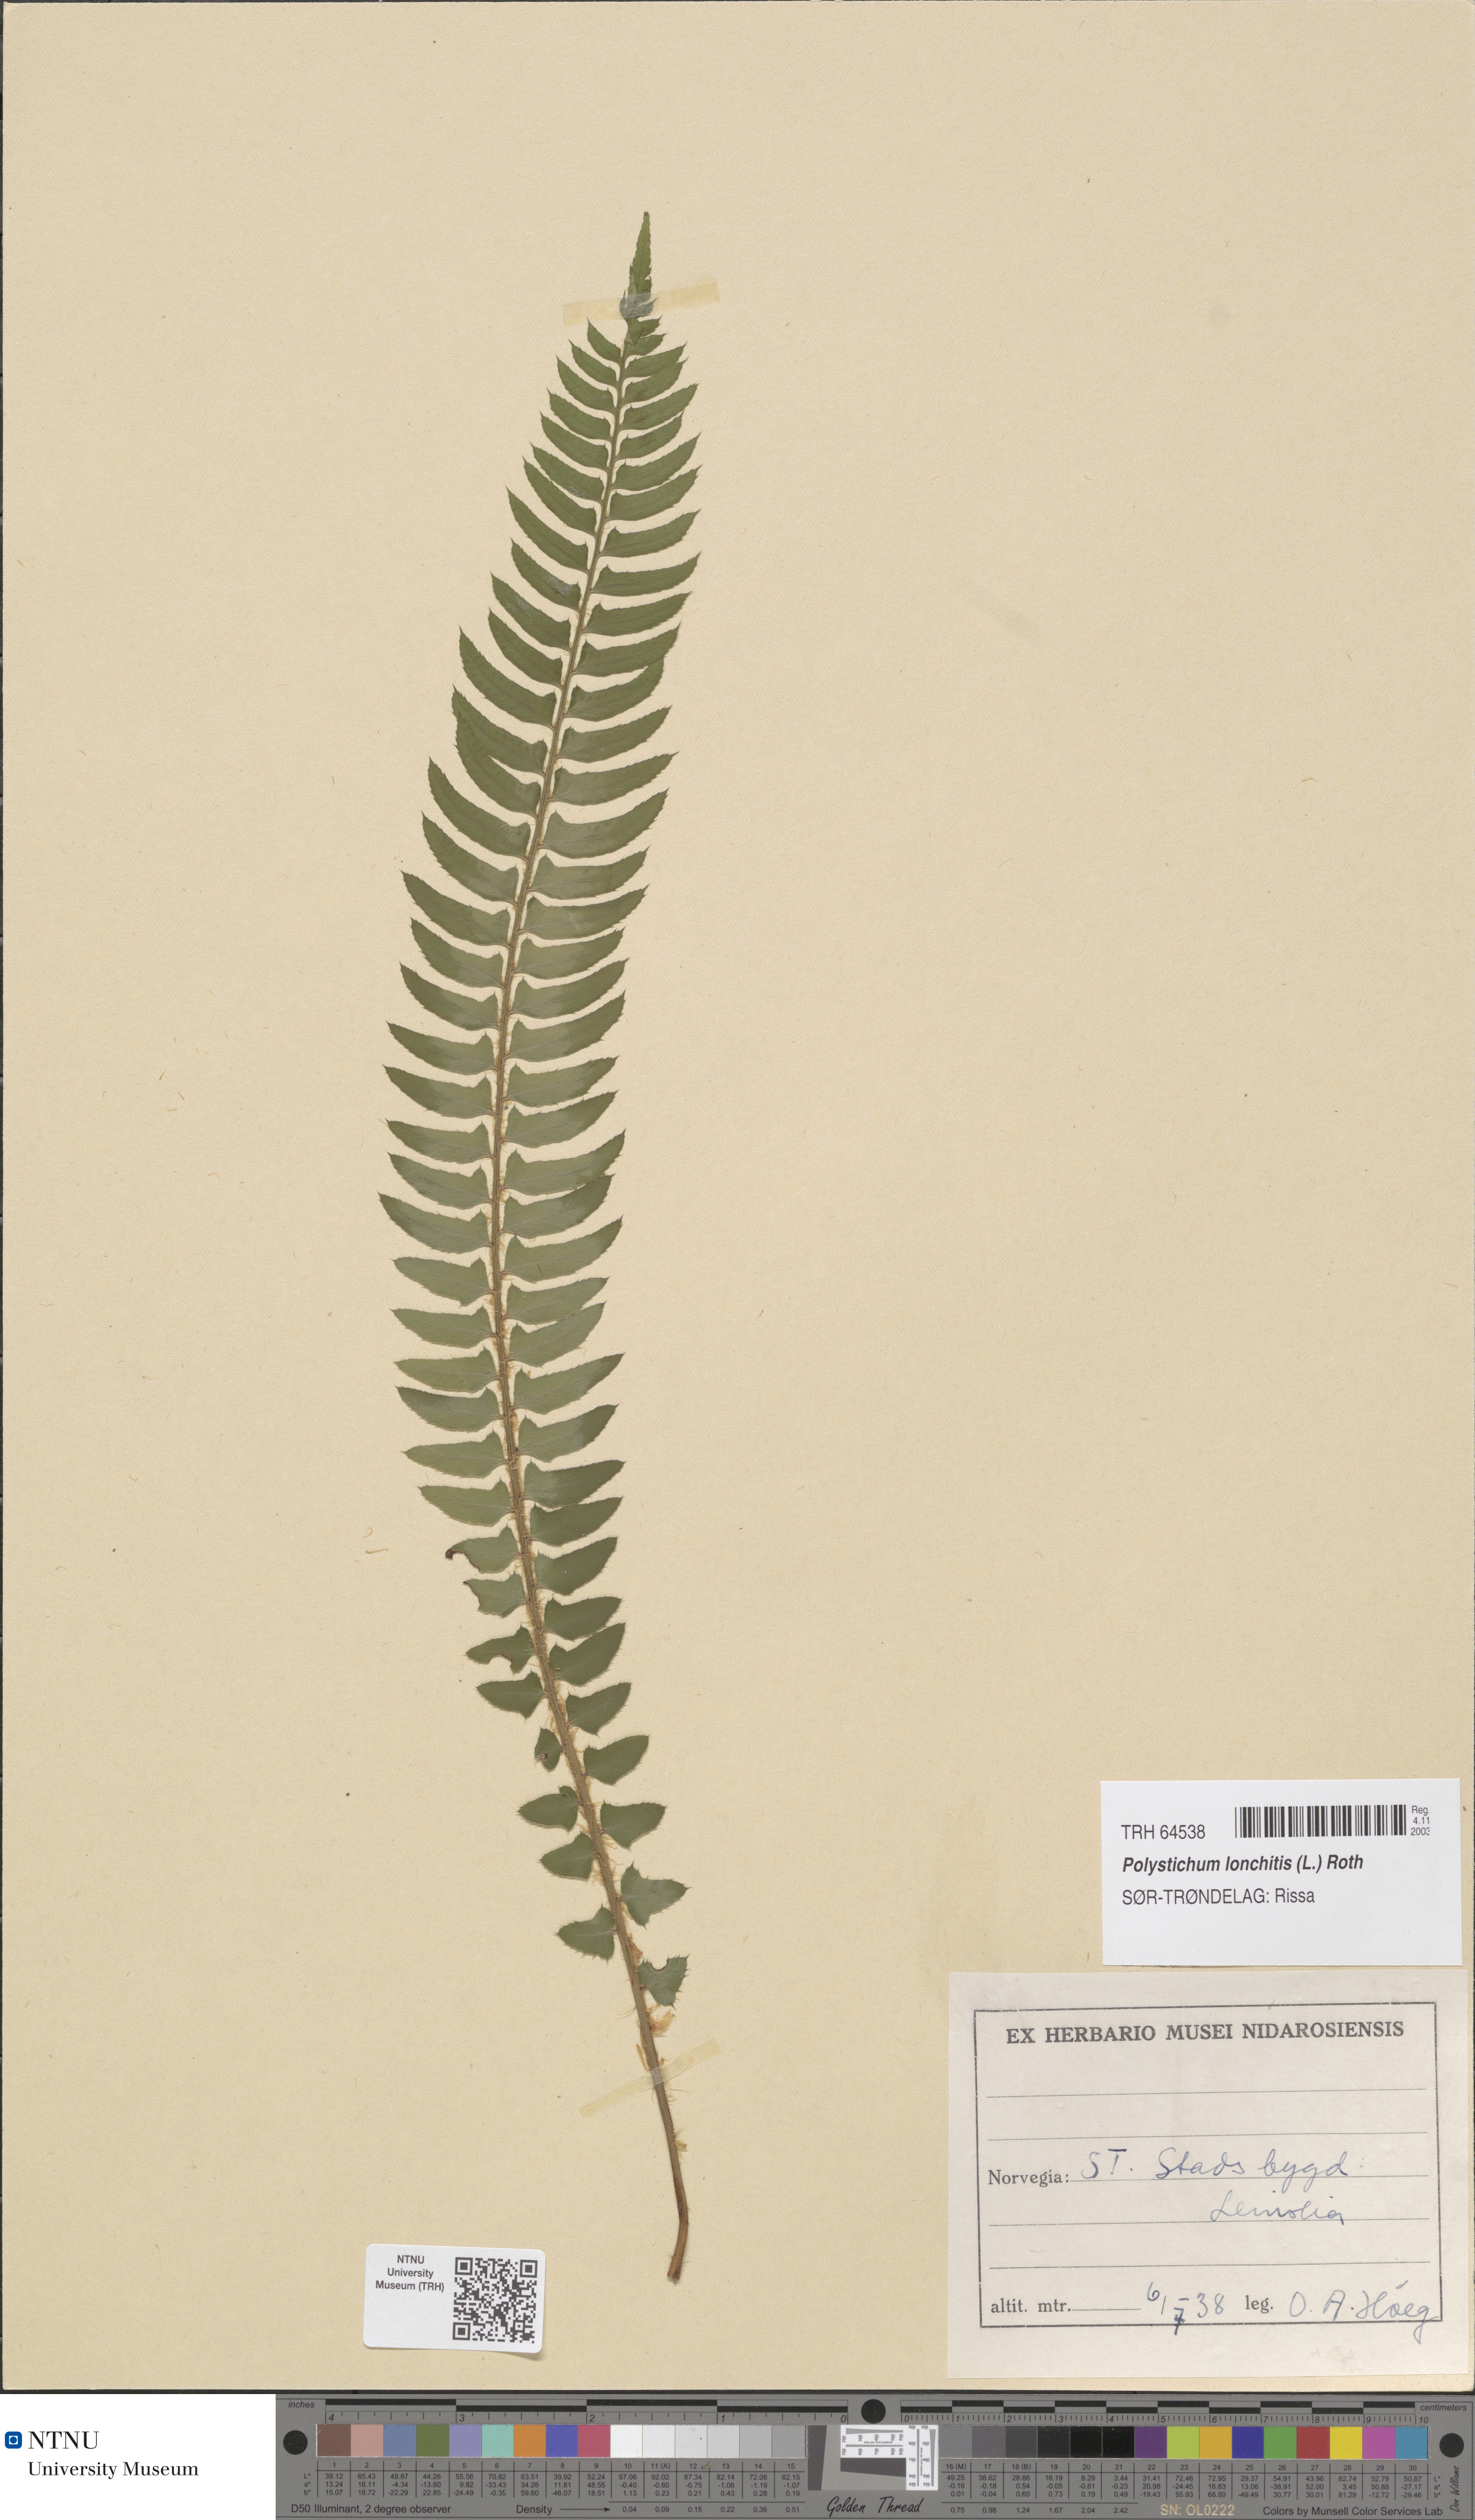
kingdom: Plantae
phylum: Tracheophyta
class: Polypodiopsida
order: Polypodiales
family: Dryopteridaceae
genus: Polystichum
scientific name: Polystichum lonchitis
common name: Holly fern
